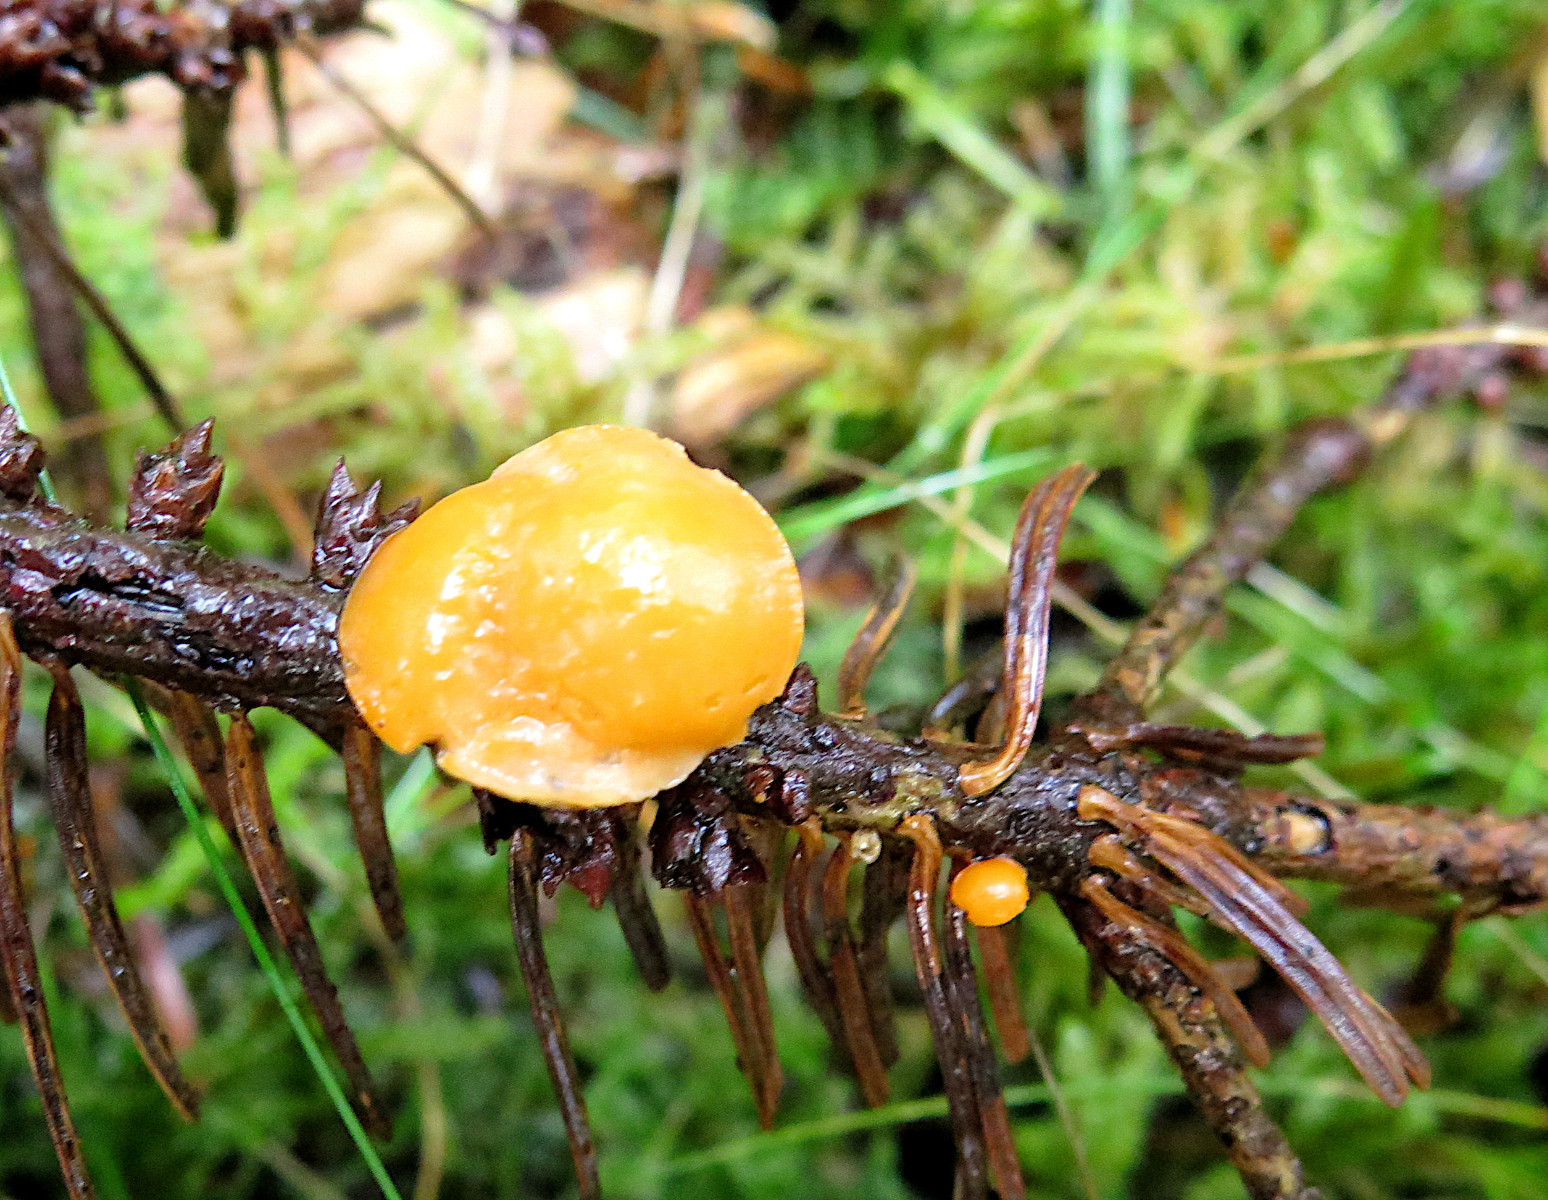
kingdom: Fungi
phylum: Ascomycota
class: Pezizomycetes
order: Pezizales
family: Sarcoscyphaceae
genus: Pithya
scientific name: Pithya vulgaris
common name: stor dukatbæger
